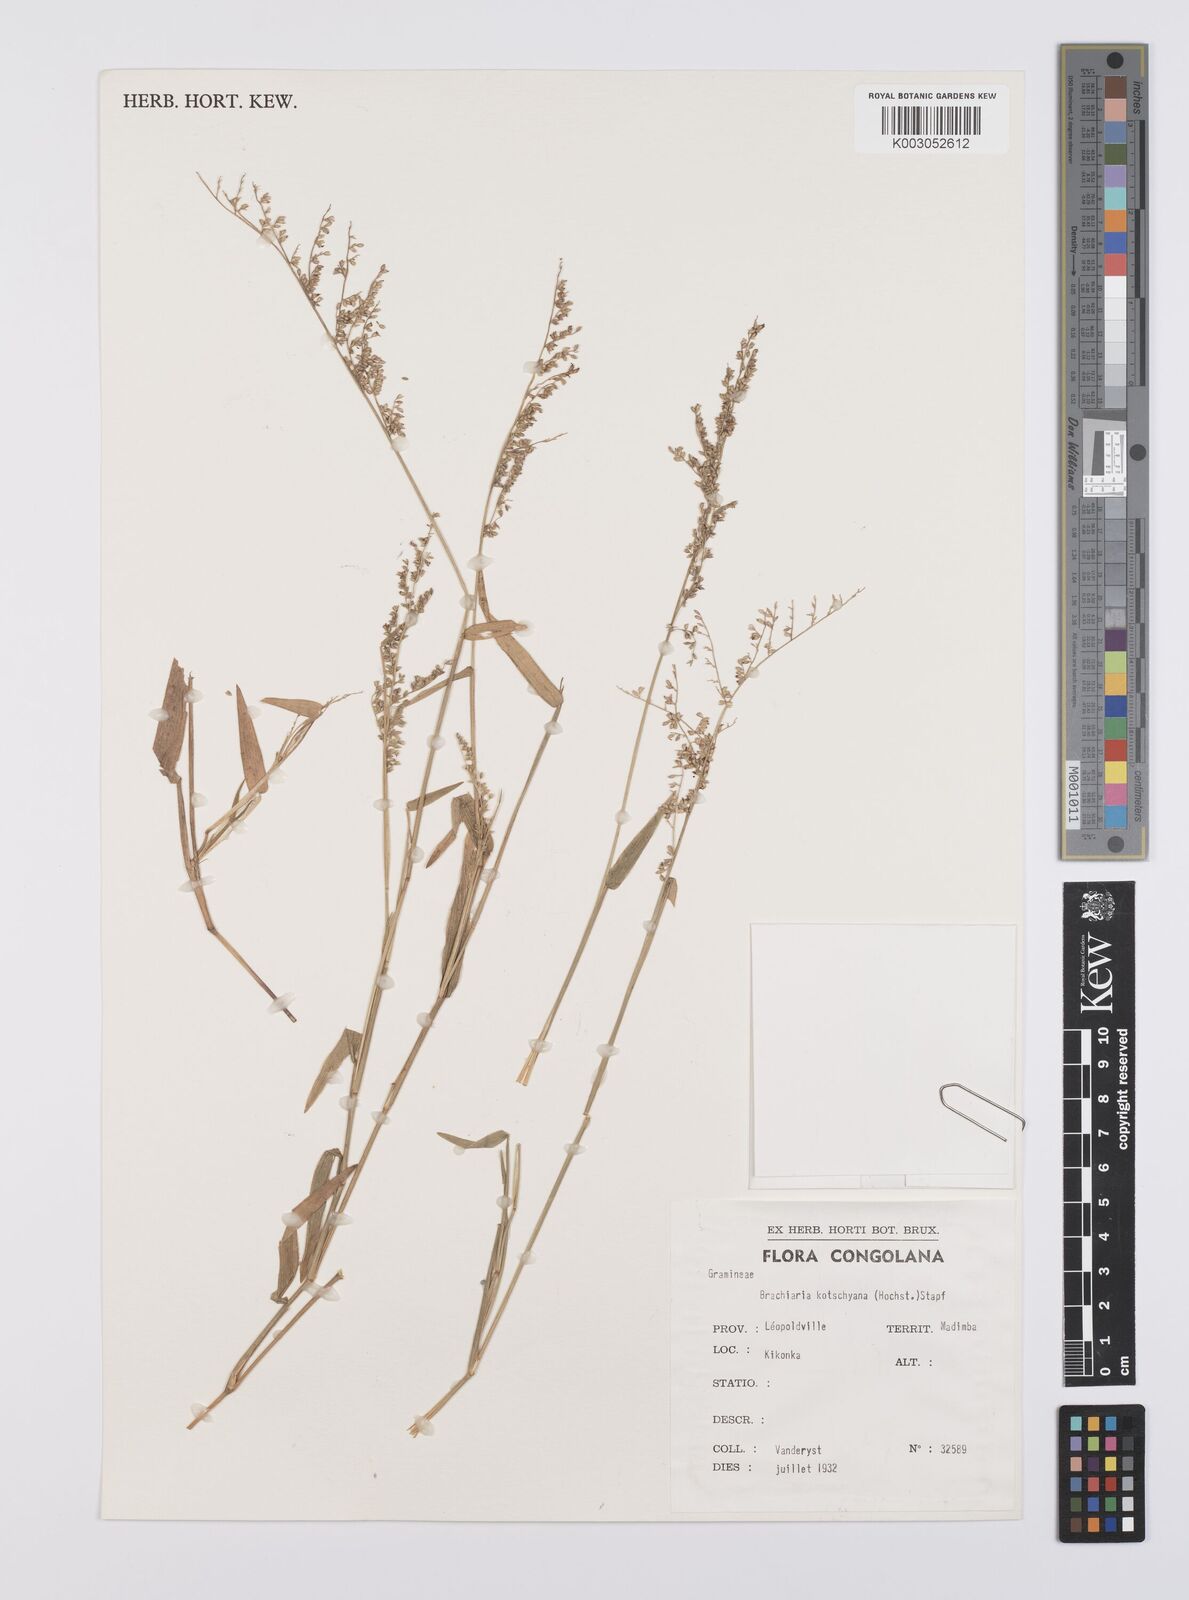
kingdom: Plantae
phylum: Tracheophyta
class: Liliopsida
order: Poales
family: Poaceae
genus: Urochloa
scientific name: Urochloa comata
